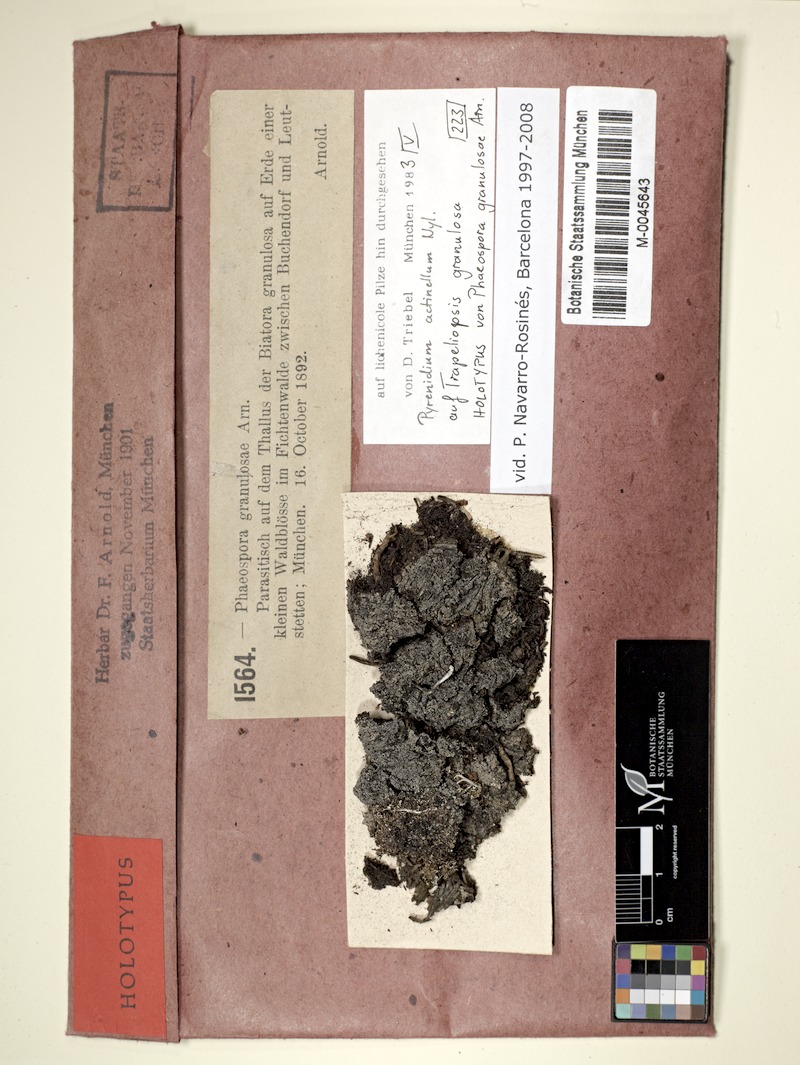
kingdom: Fungi
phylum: Ascomycota
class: Dothideomycetes
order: Pleosporales
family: Pyrenidiaceae
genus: Pyrenidium
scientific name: Pyrenidium actinellum
